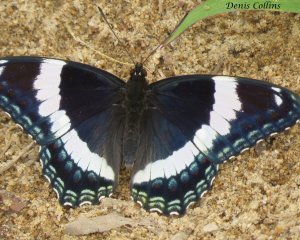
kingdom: Animalia
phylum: Arthropoda
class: Insecta
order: Lepidoptera
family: Nymphalidae
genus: Limenitis
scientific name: Limenitis arthemis
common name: Red-spotted Admiral
